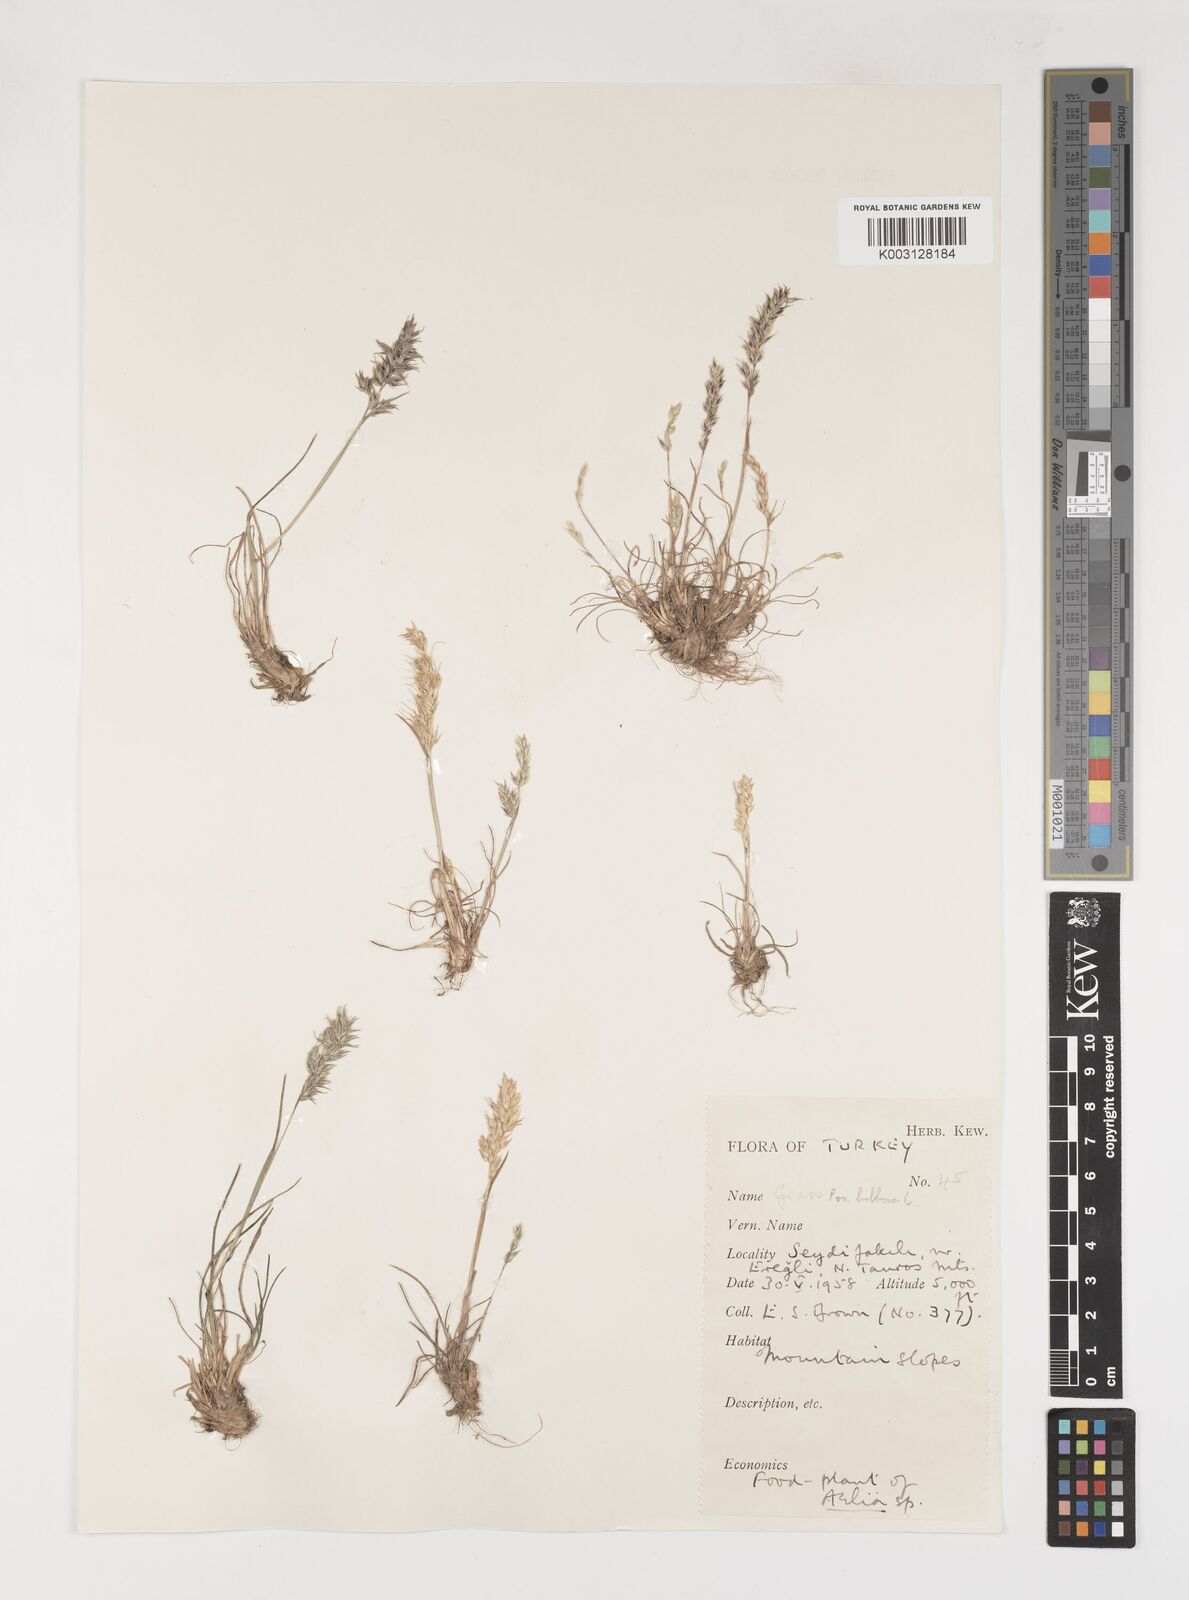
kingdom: Plantae
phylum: Tracheophyta
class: Liliopsida
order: Poales
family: Poaceae
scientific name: Poaceae
